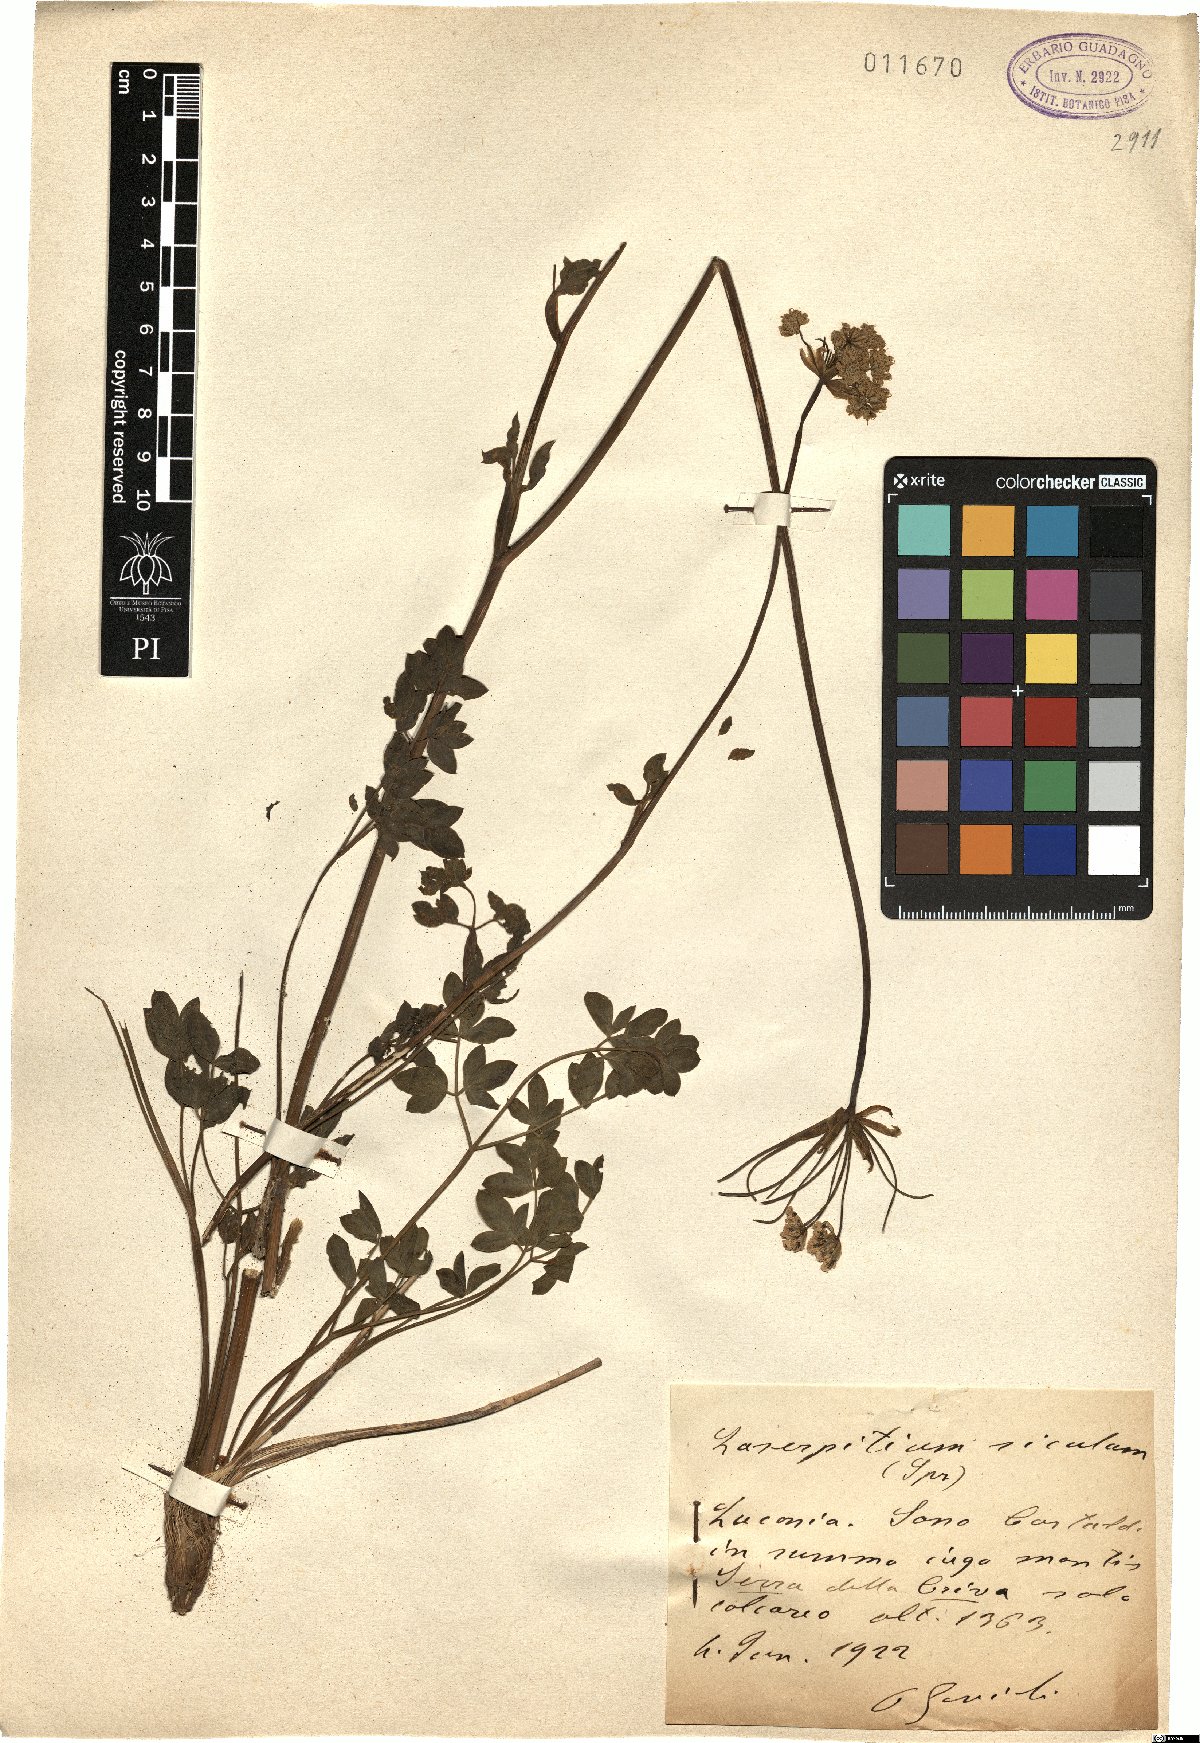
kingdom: Plantae
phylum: Tracheophyta
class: Magnoliopsida
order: Apiales
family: Apiaceae
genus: Siler
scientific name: Siler montanum
